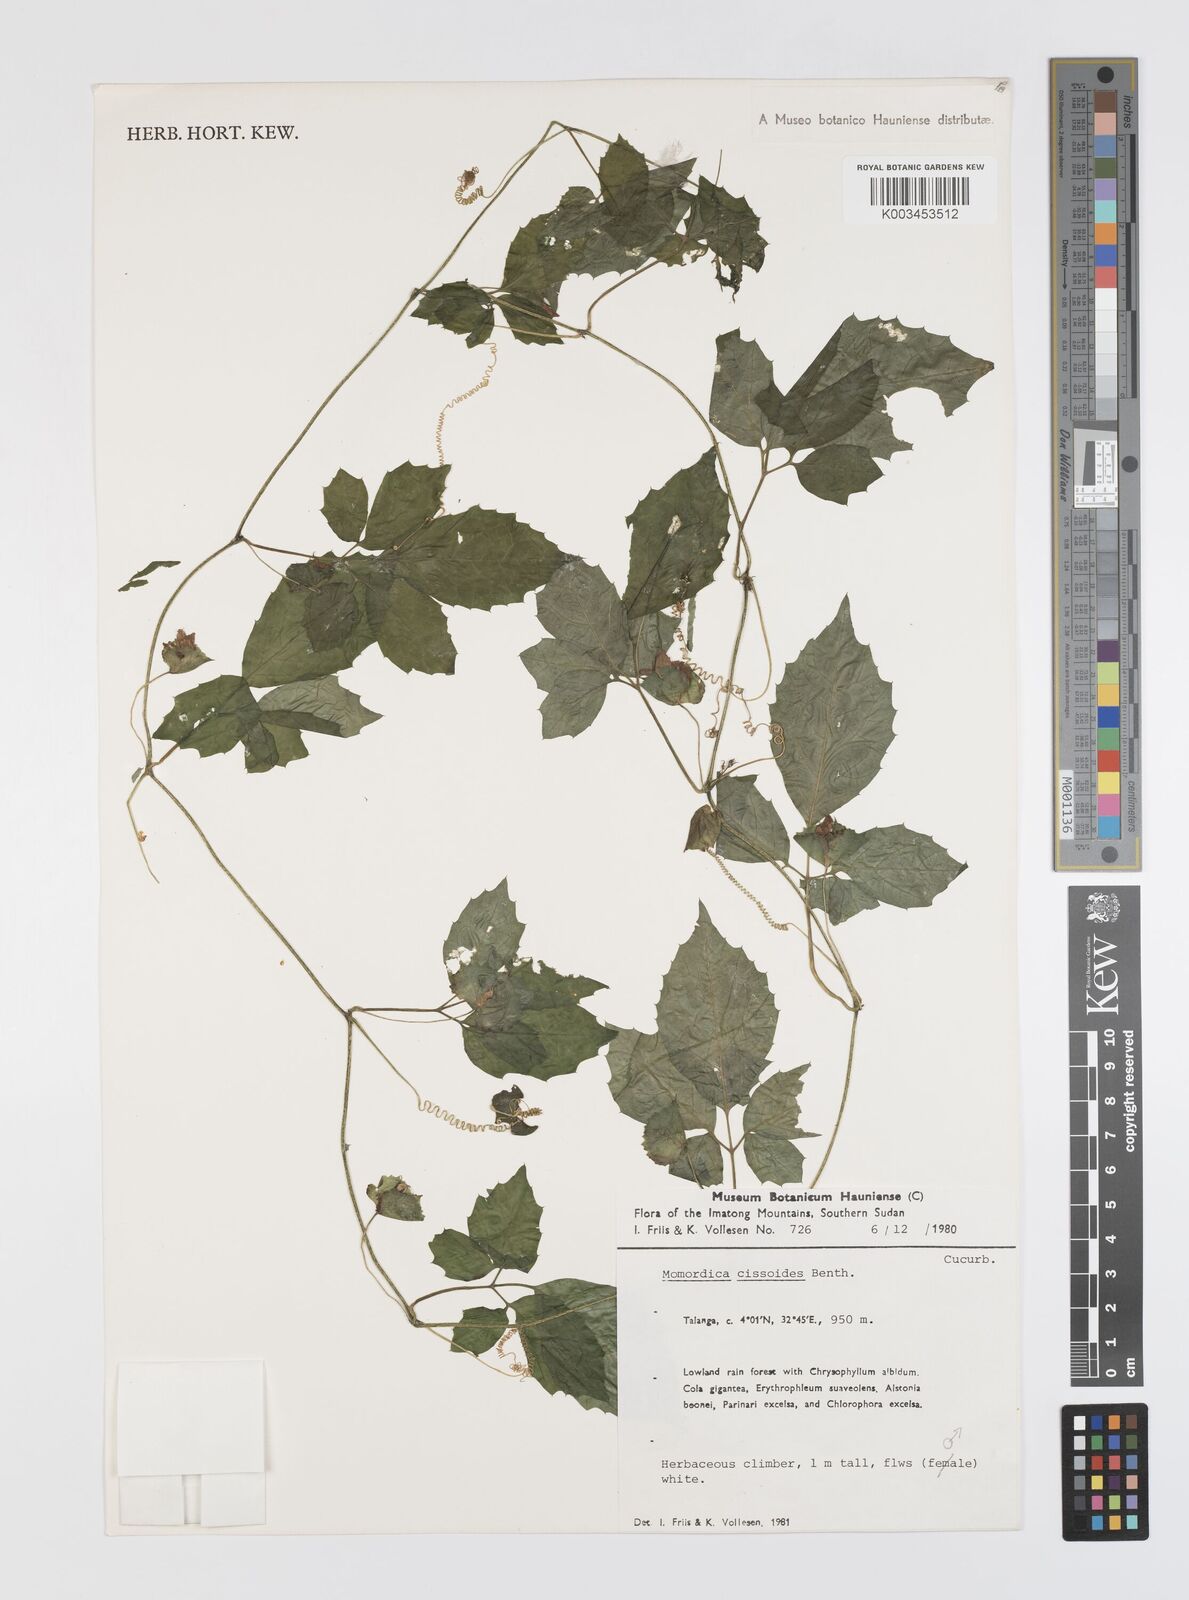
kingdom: Plantae
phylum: Tracheophyta
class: Magnoliopsida
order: Cucurbitales
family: Cucurbitaceae
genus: Momordica
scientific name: Momordica cissoides
